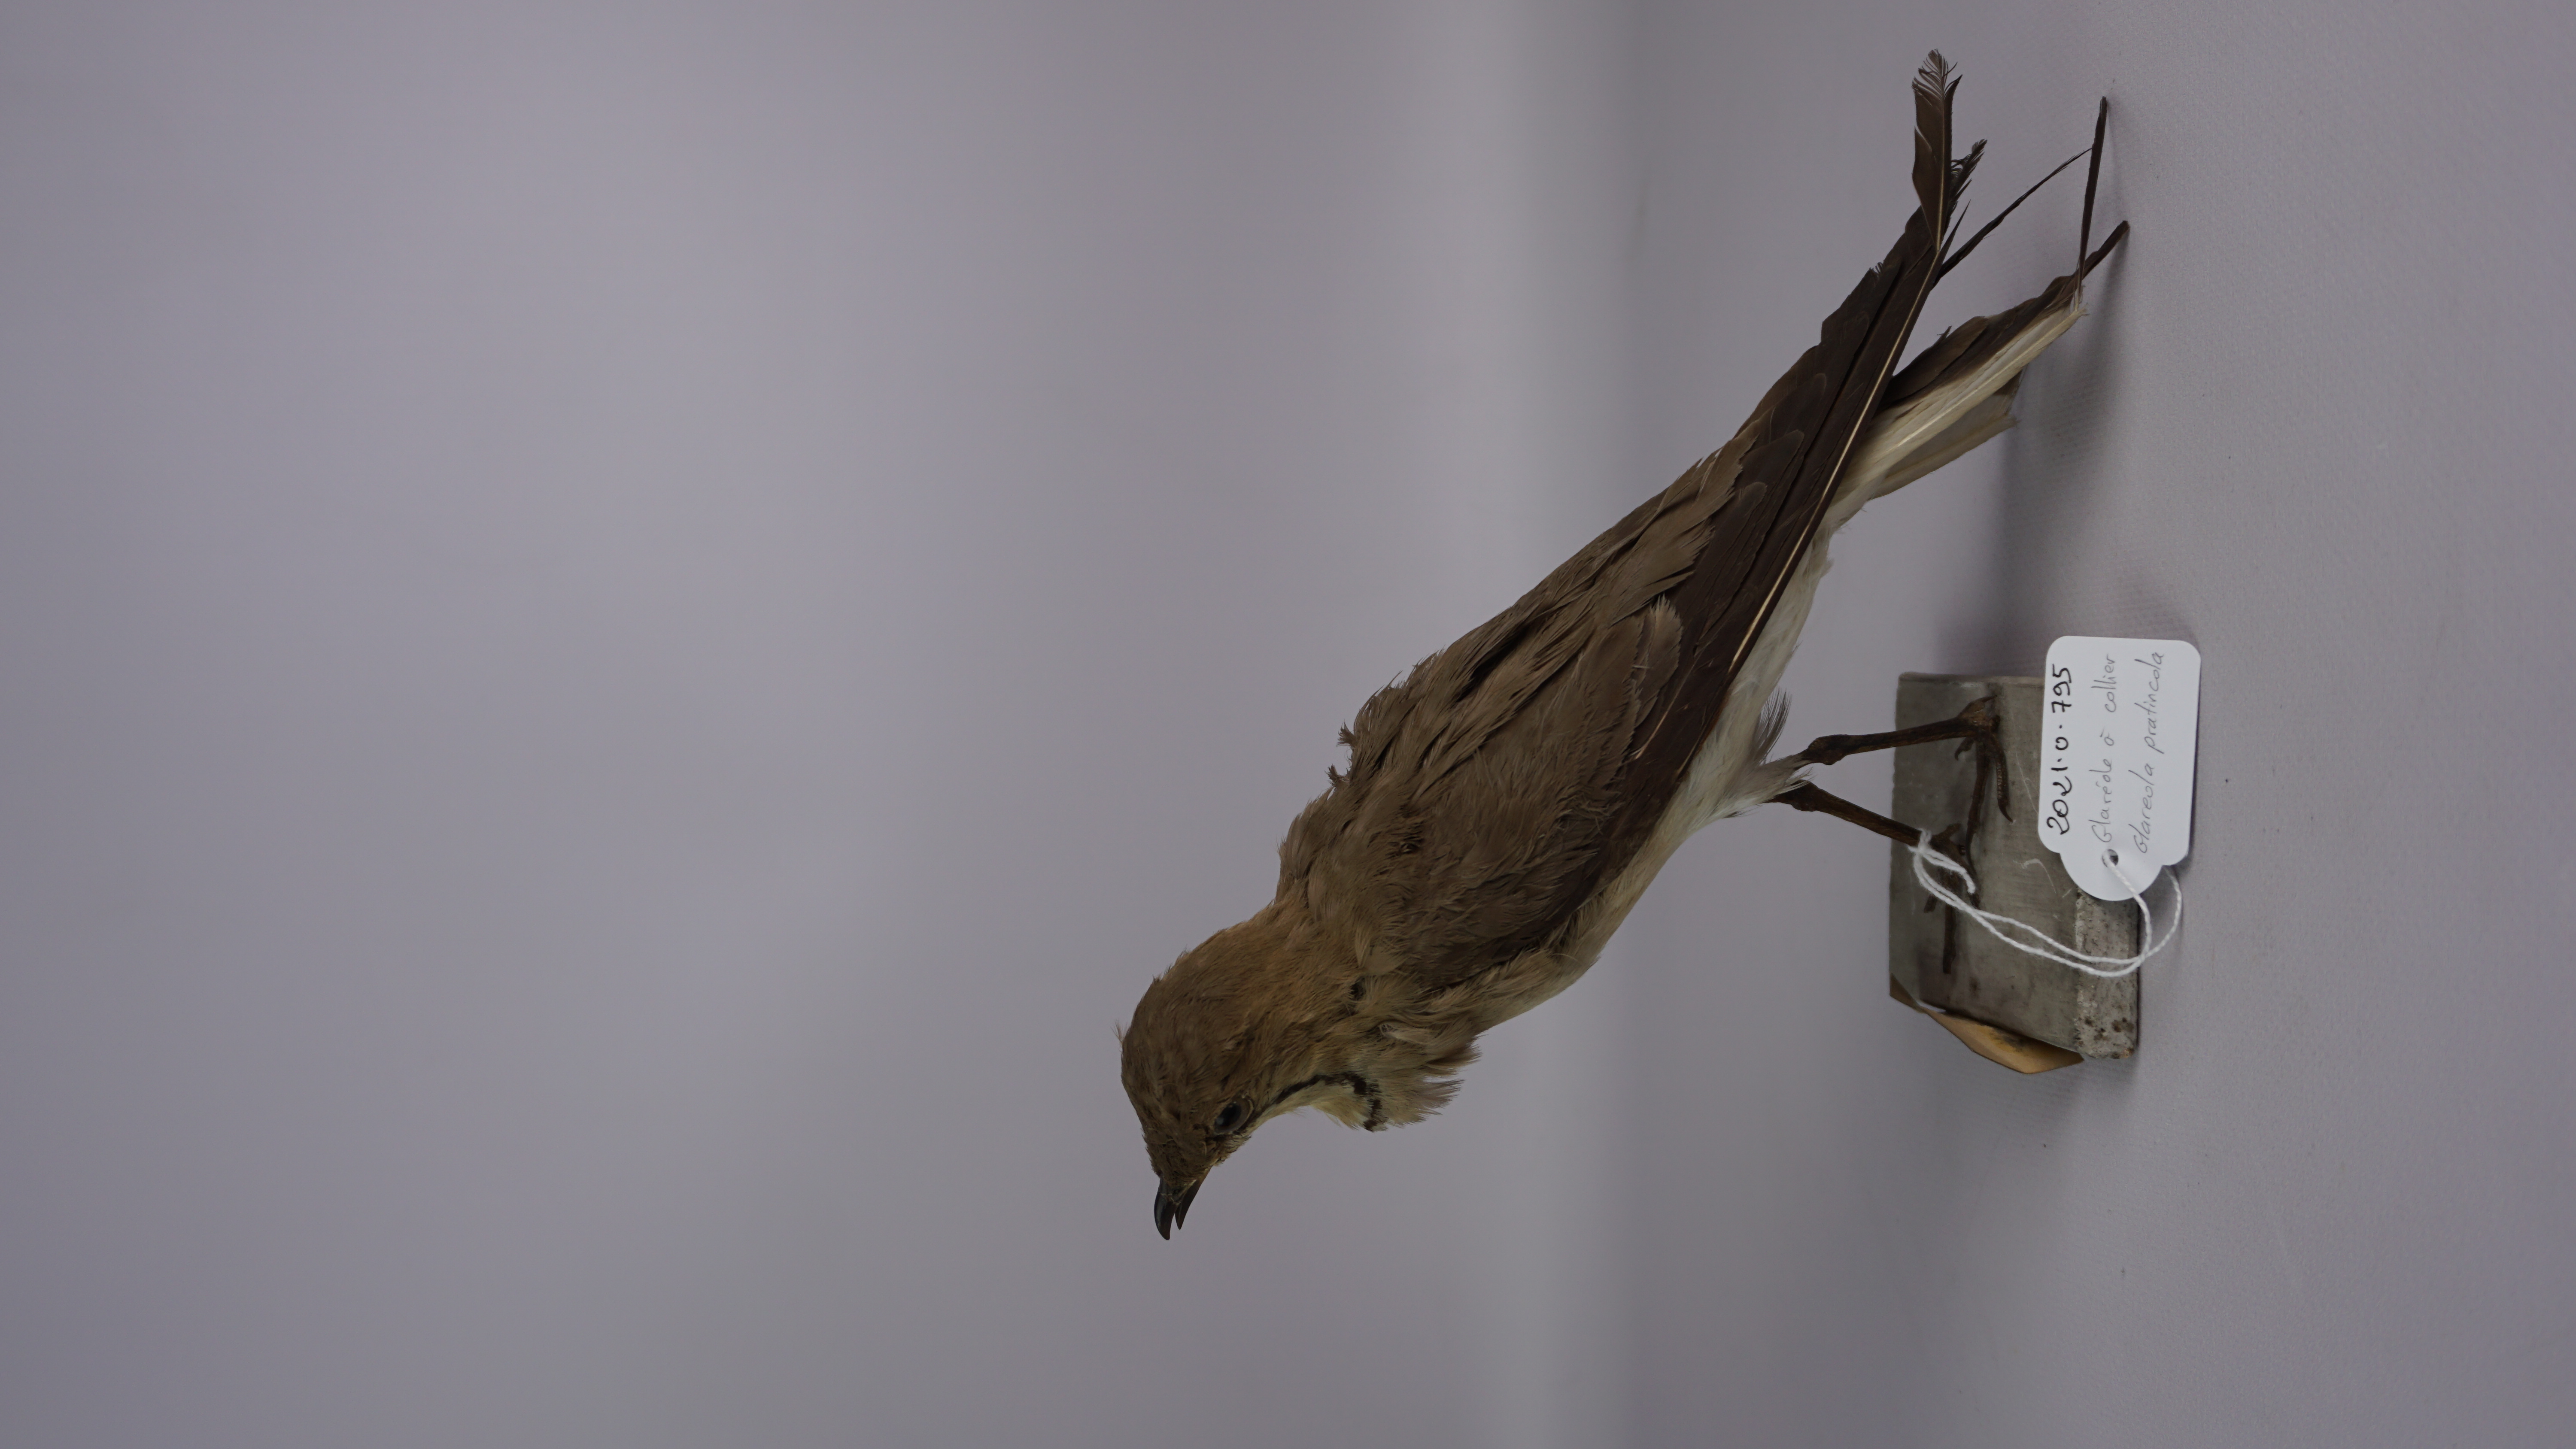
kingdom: Animalia
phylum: Chordata
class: Aves
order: Charadriiformes
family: Glareolidae
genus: Glareola
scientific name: Glareola pratincola
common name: Collared pratincole
